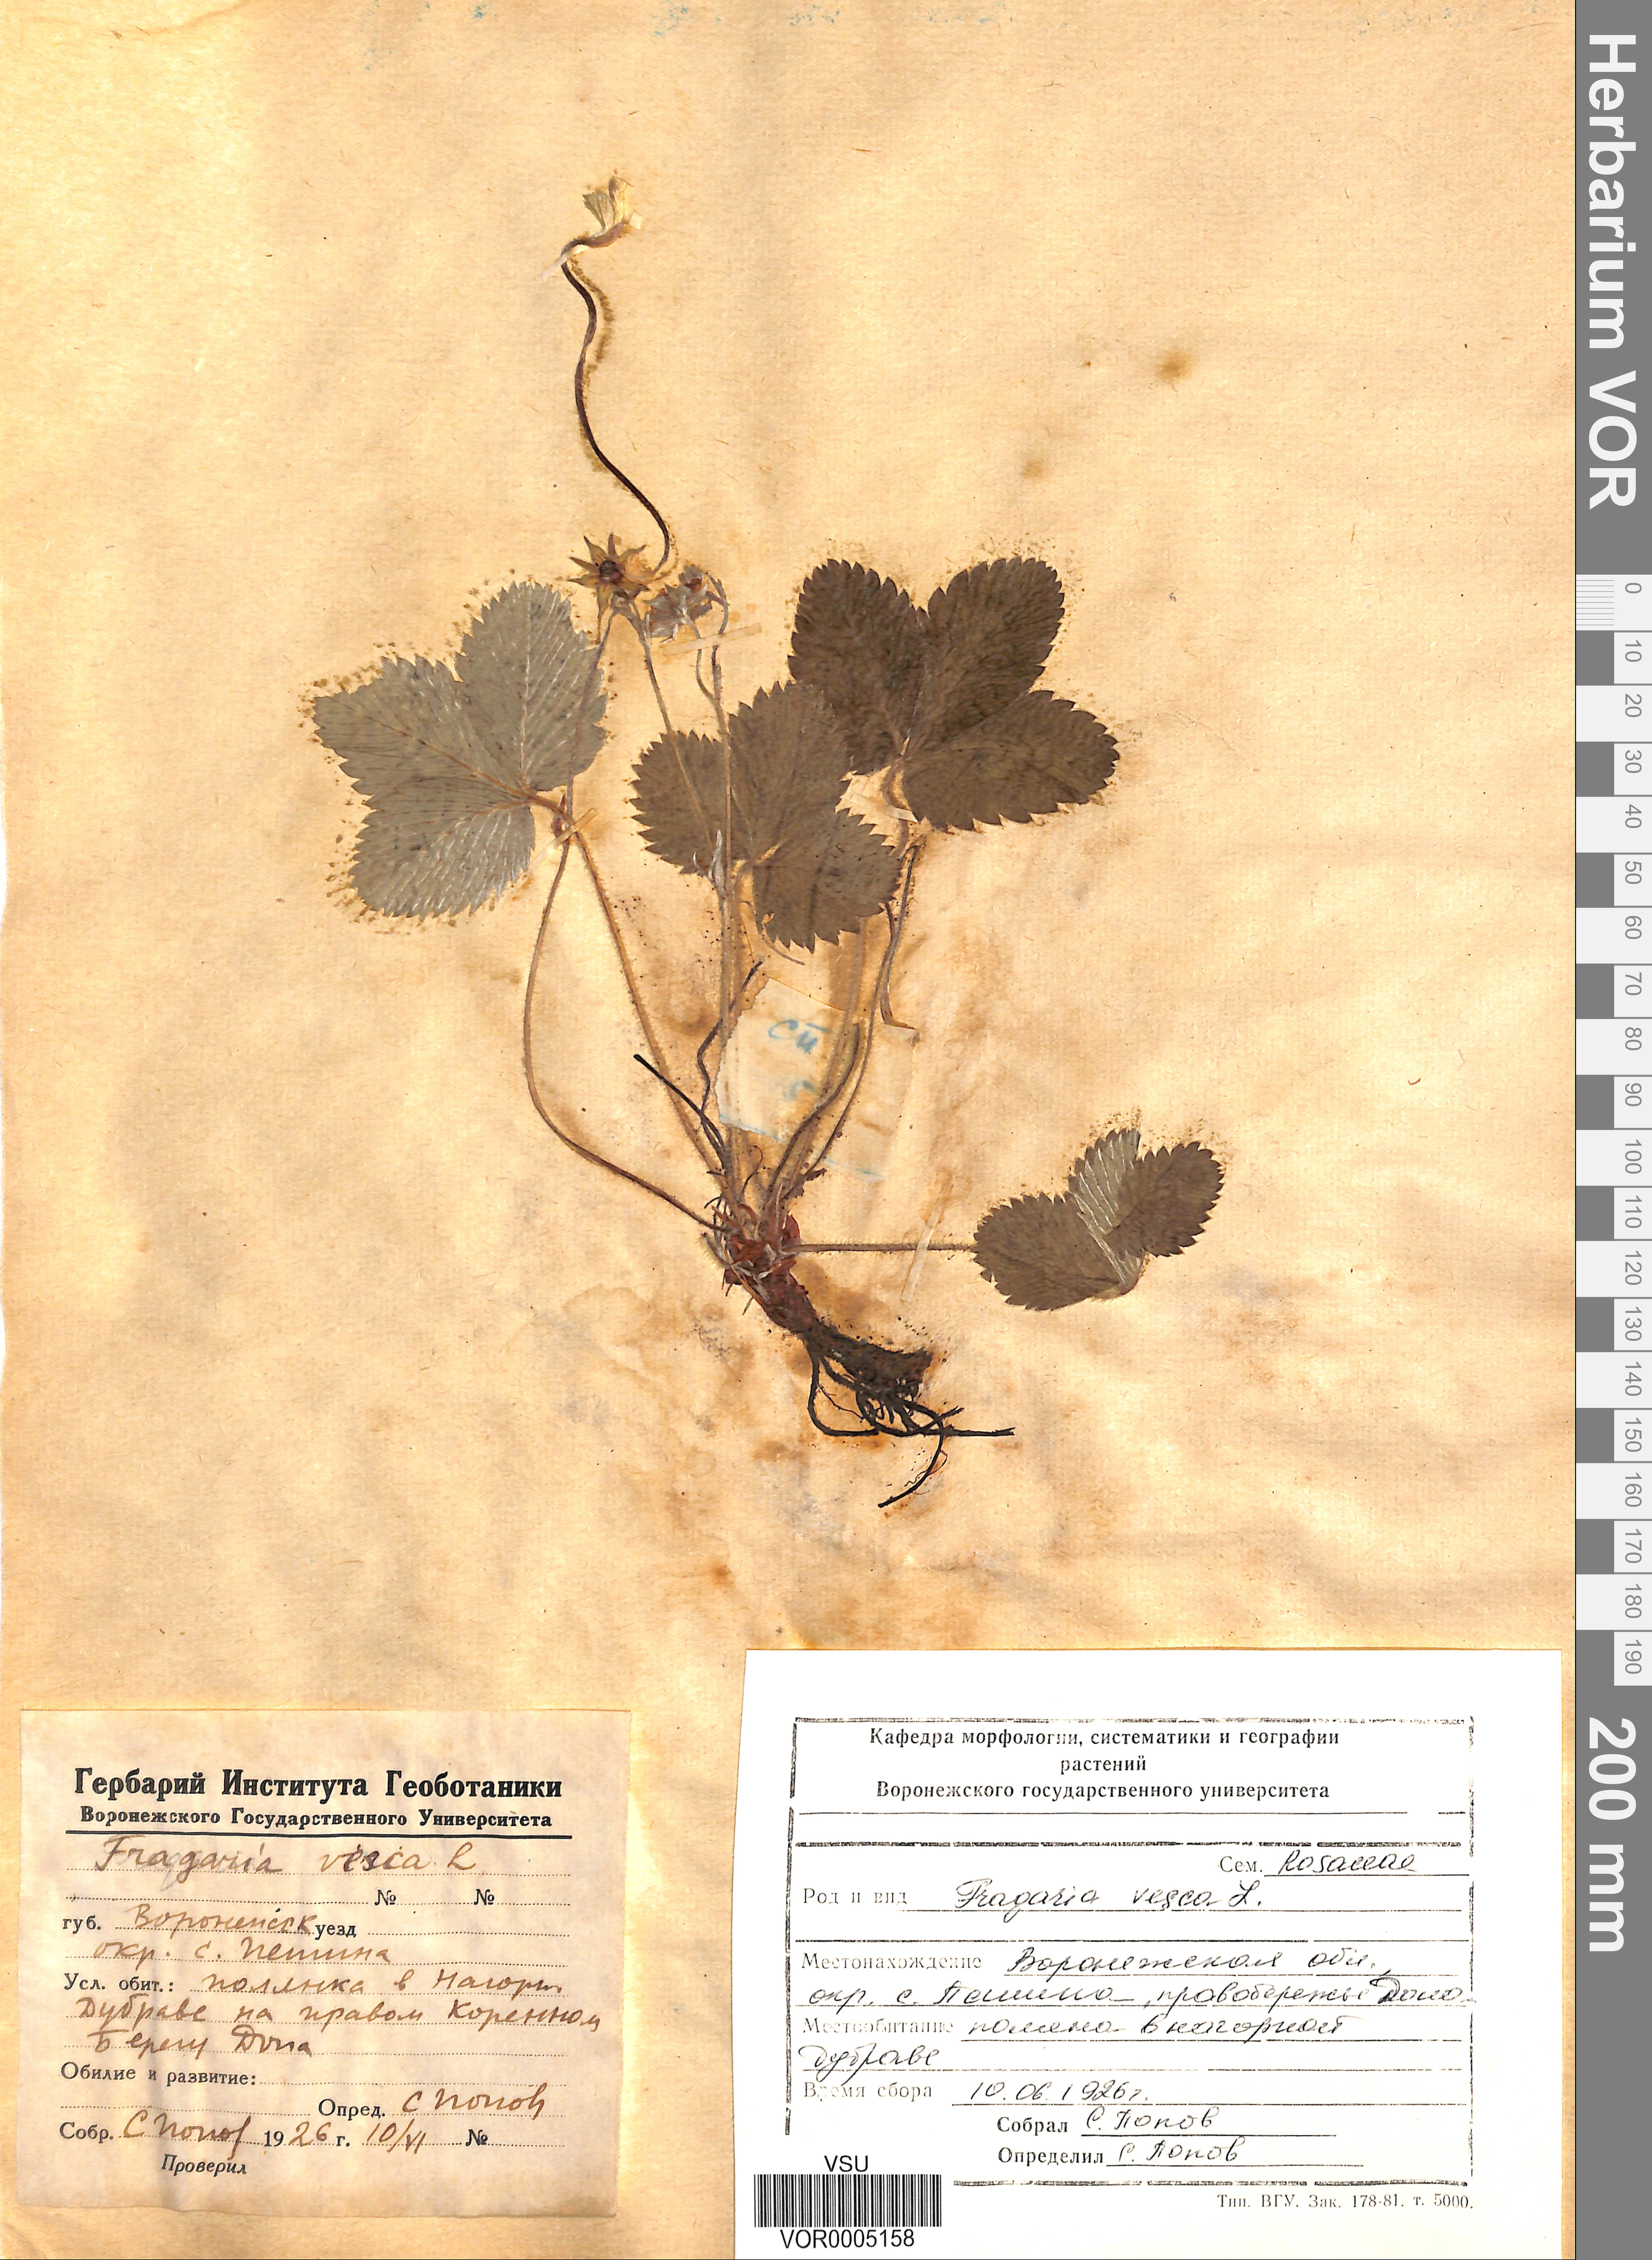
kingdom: Plantae
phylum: Tracheophyta
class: Magnoliopsida
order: Rosales
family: Rosaceae
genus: Fragaria
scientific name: Fragaria vesca
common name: Wild strawberry
